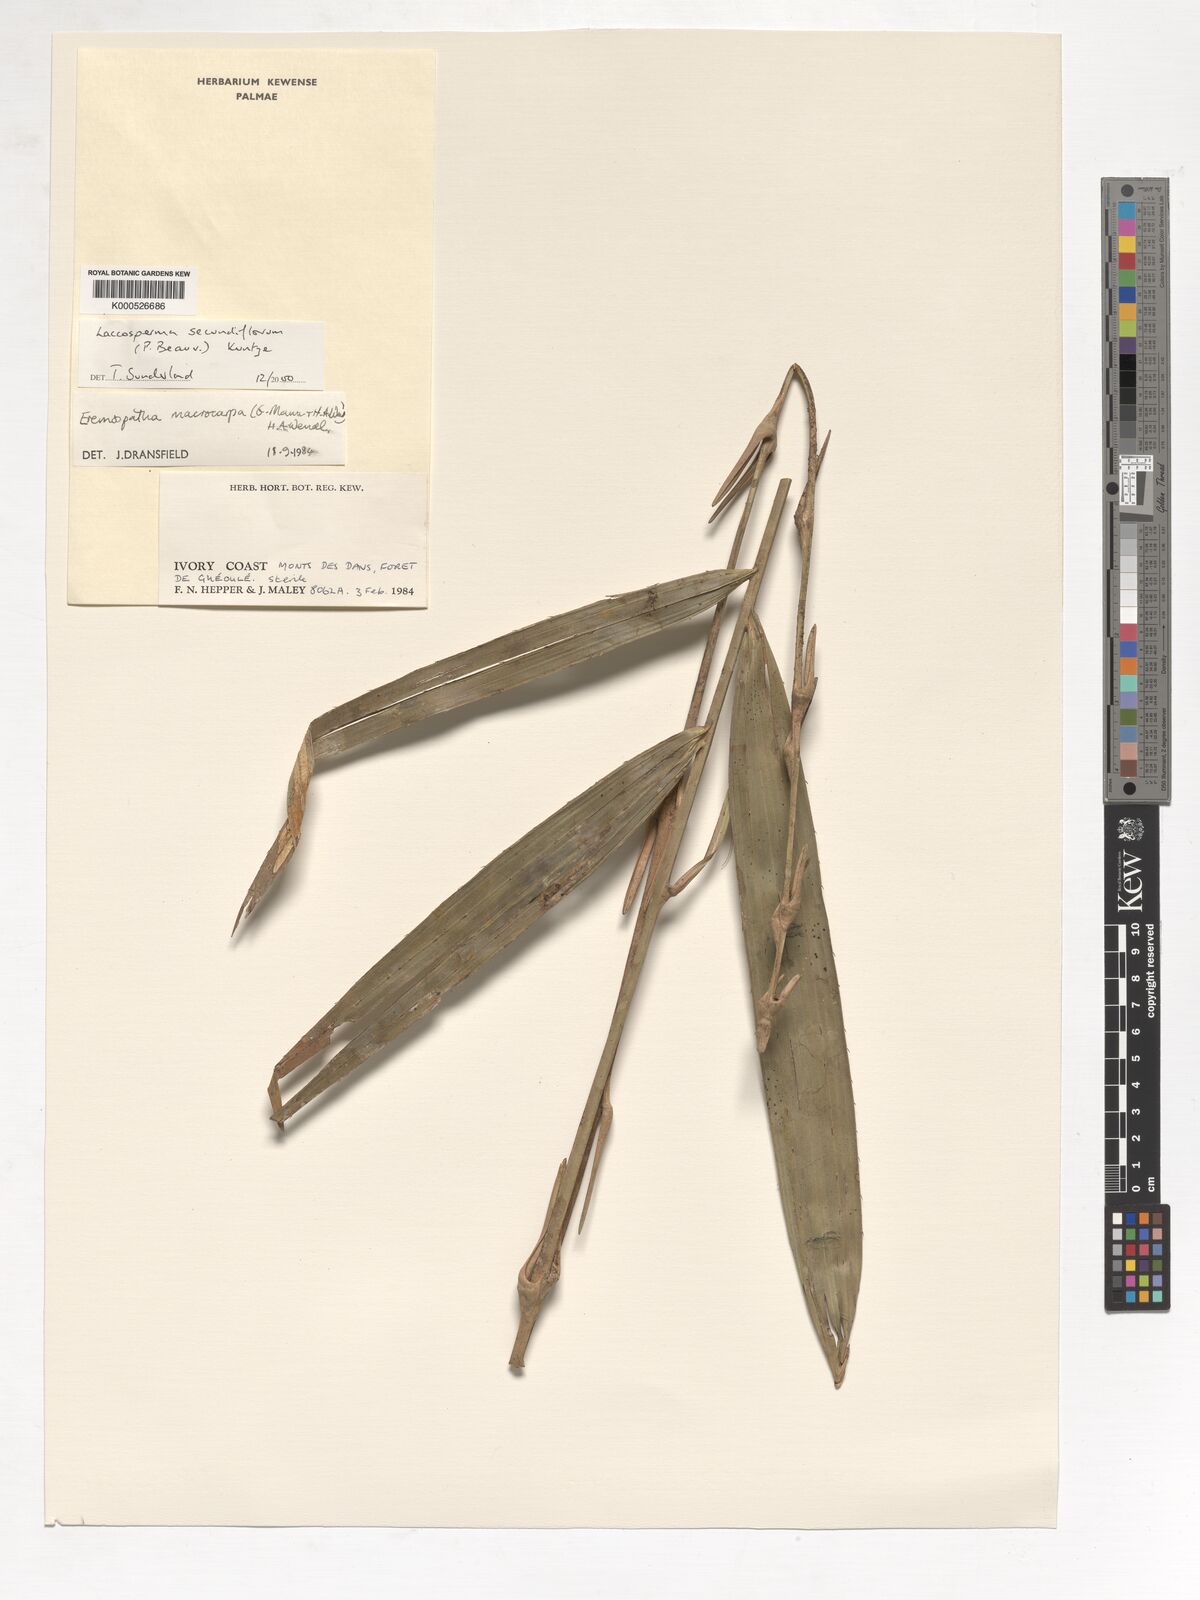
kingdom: Plantae
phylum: Tracheophyta
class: Liliopsida
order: Arecales
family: Arecaceae
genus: Laccosperma
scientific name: Laccosperma secundiflorum
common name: Rattan
